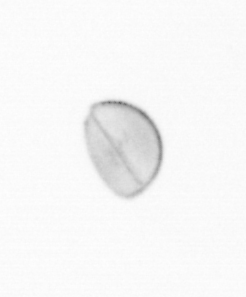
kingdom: Chromista
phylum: Ochrophyta
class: Bacillariophyceae
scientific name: Bacillariophyceae
